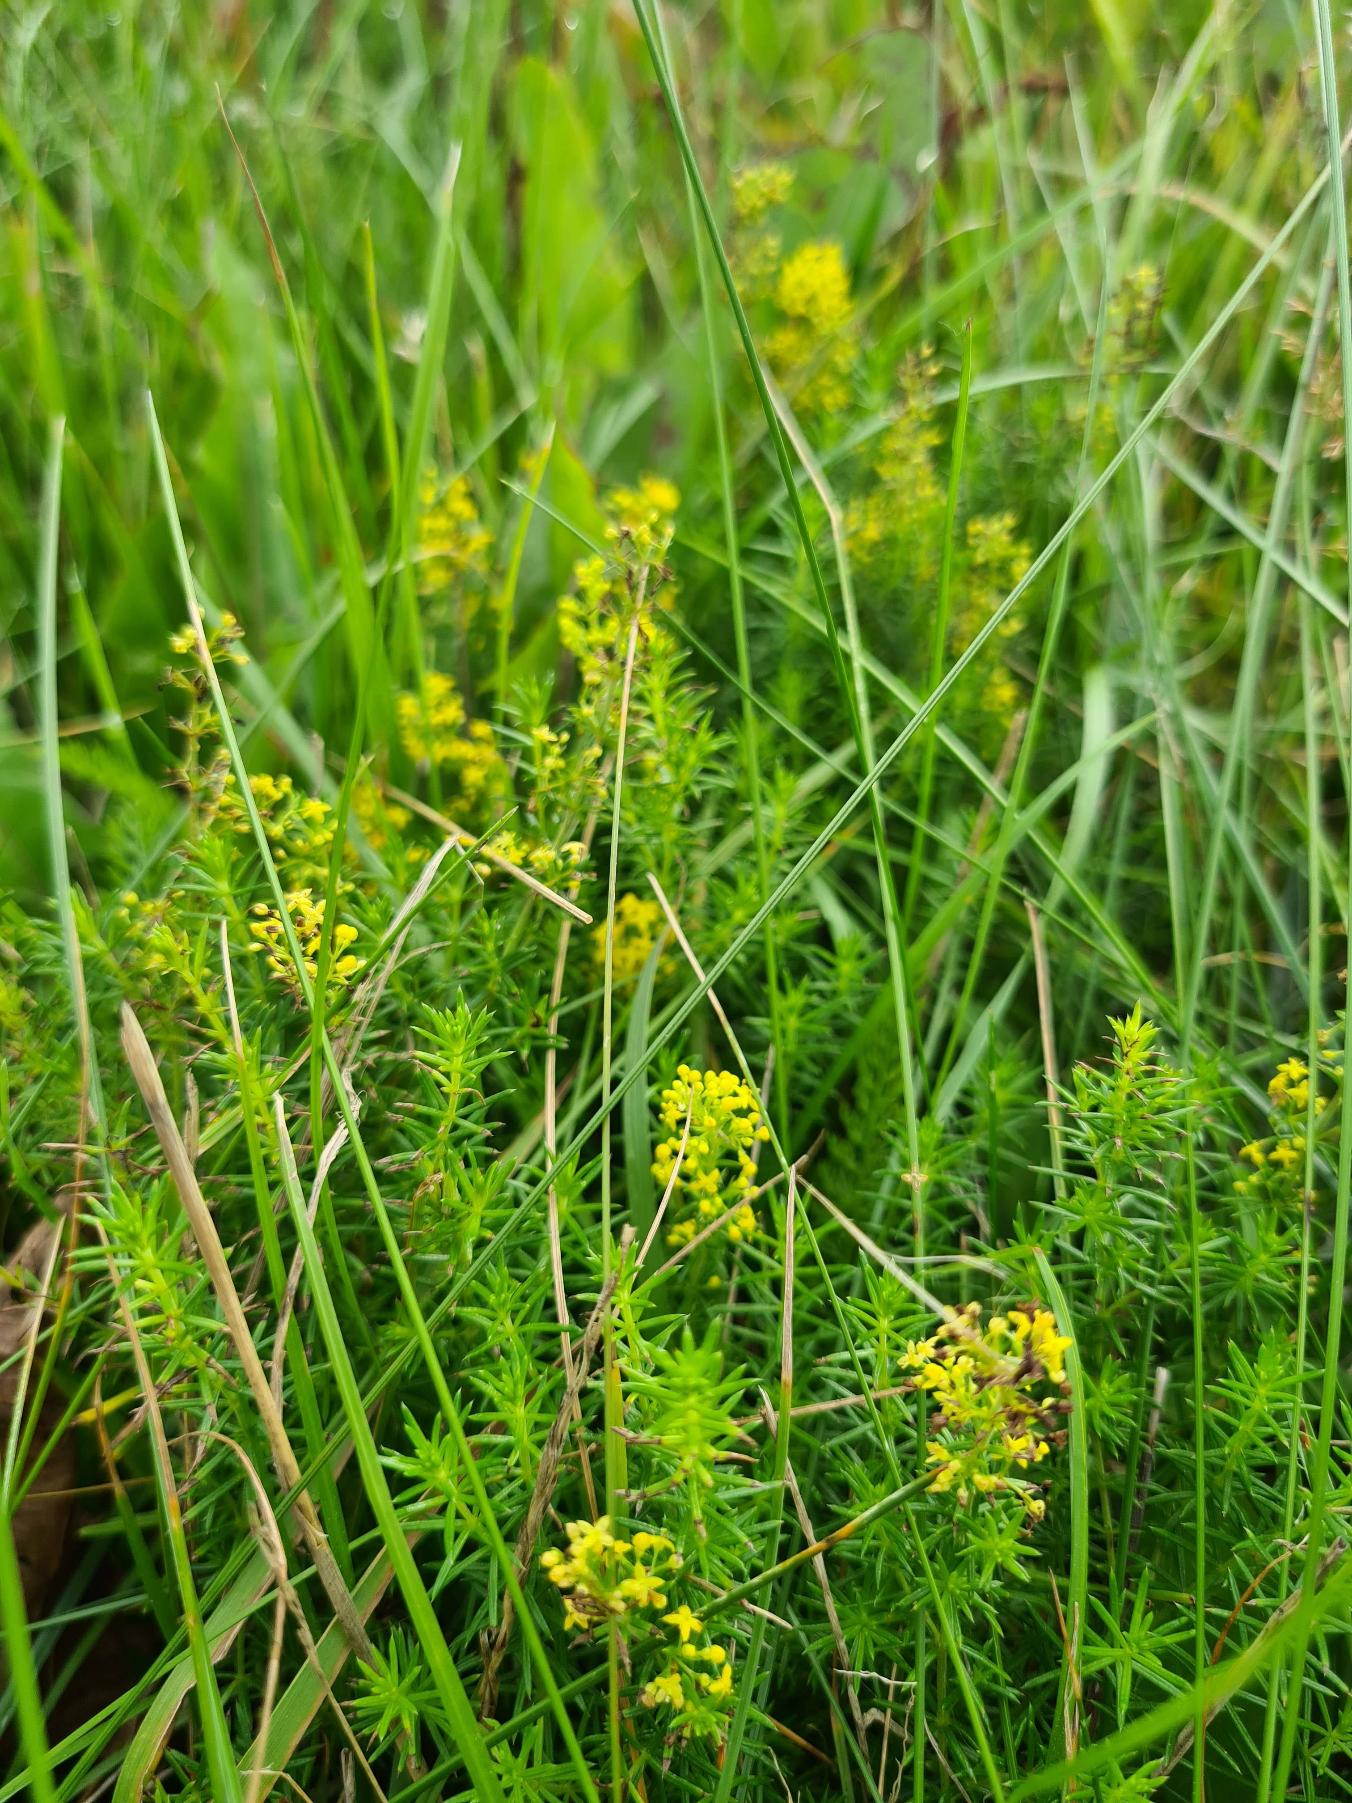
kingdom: Plantae
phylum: Tracheophyta
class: Magnoliopsida
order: Gentianales
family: Rubiaceae
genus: Galium
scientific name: Galium verum
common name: Gul snerre
